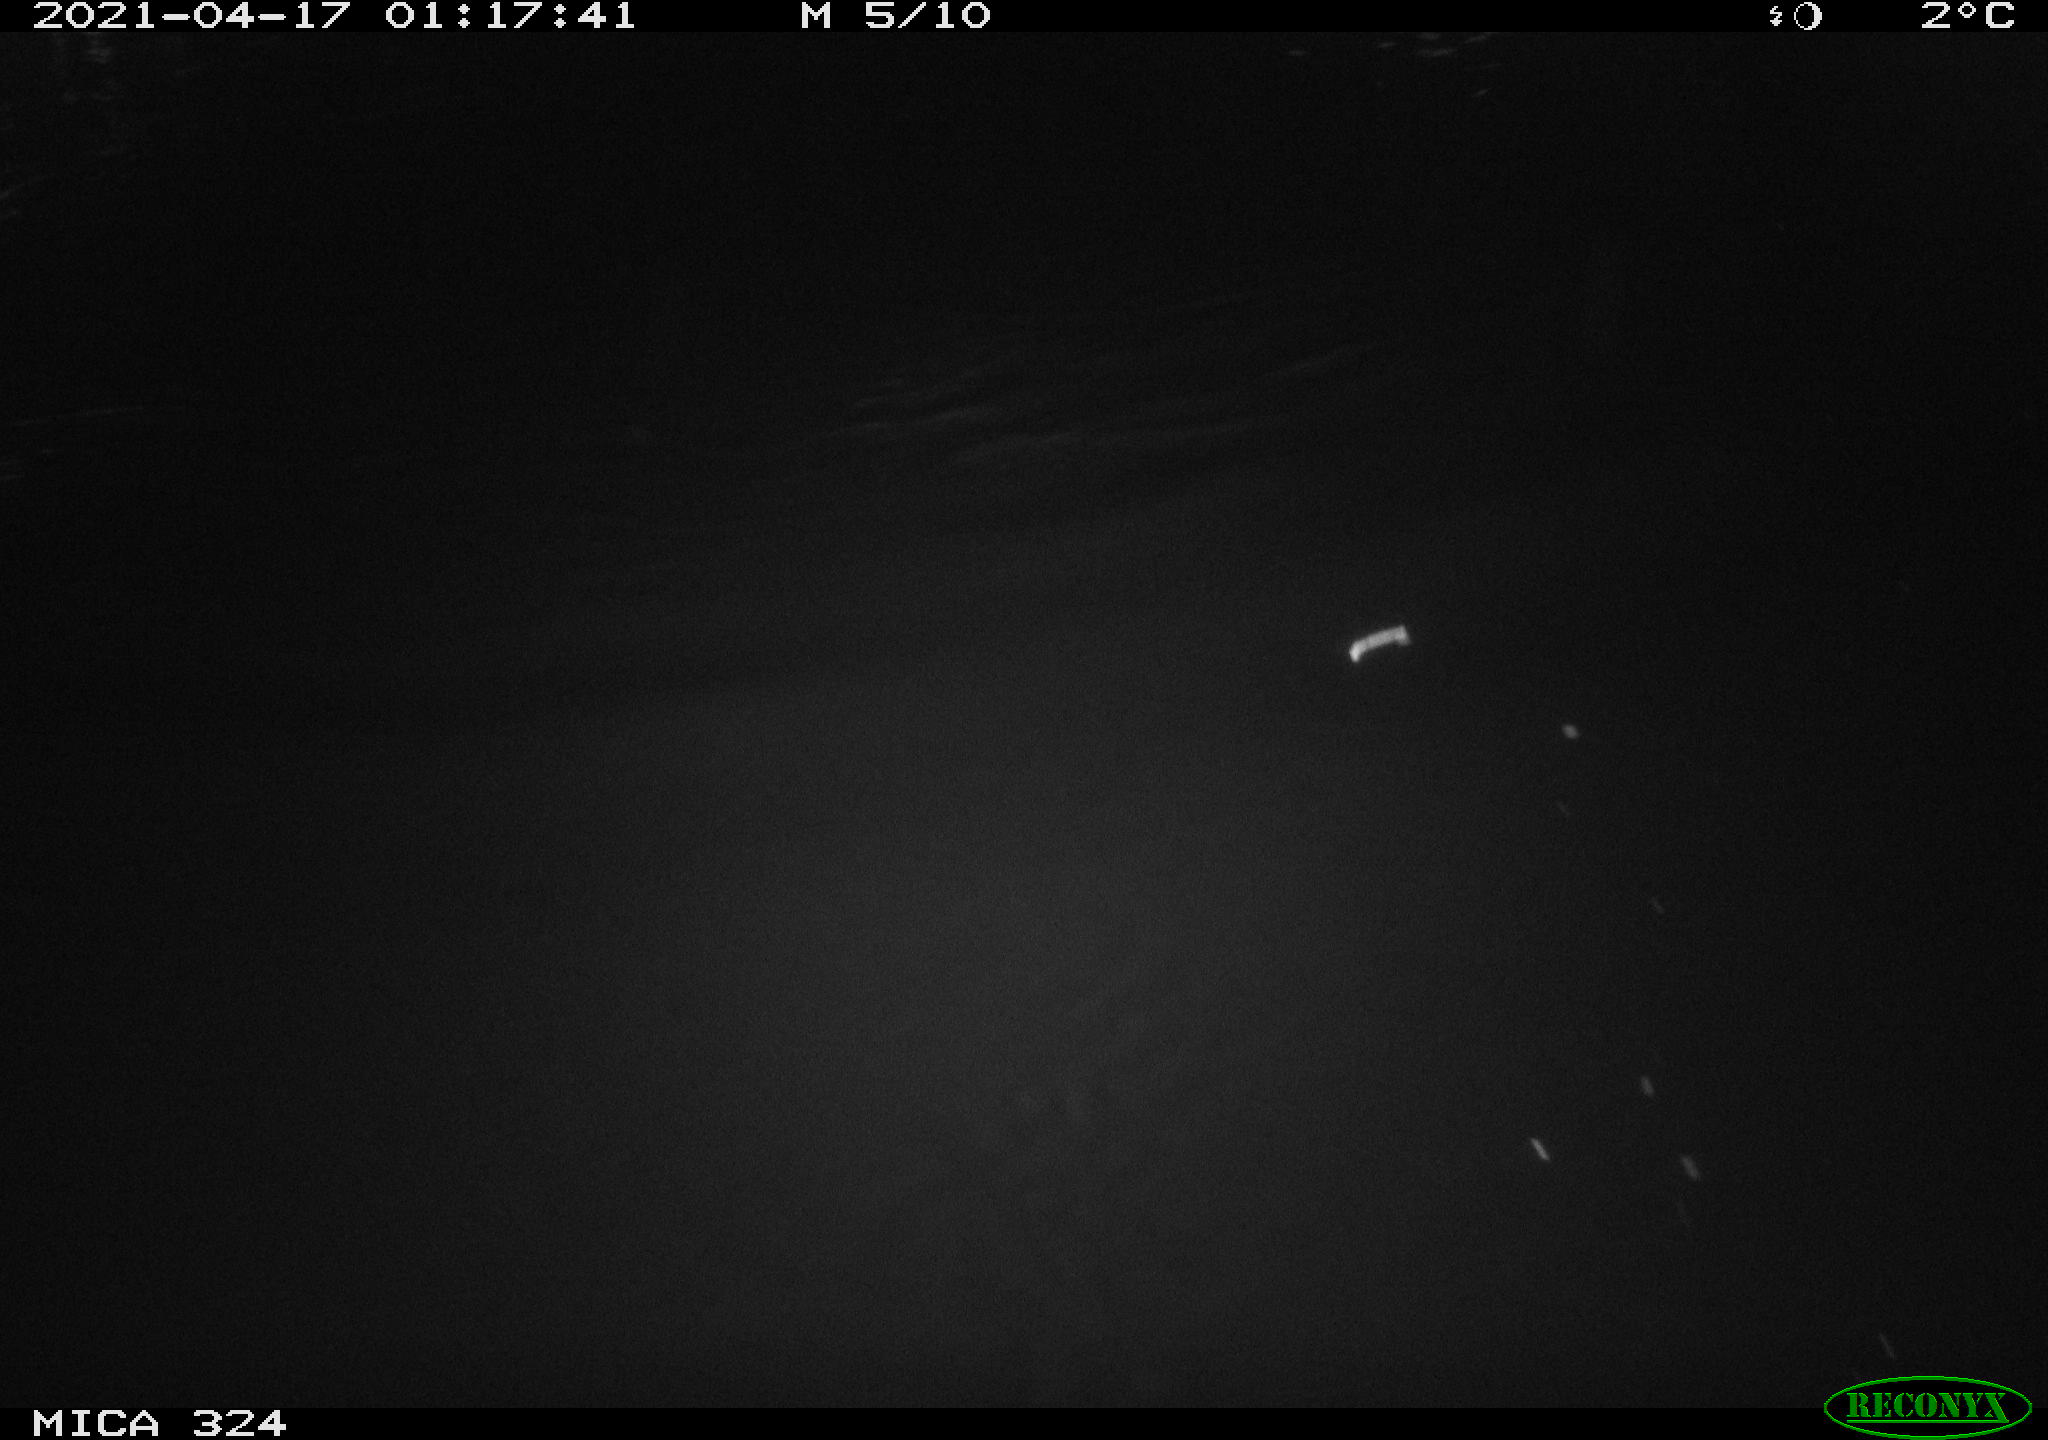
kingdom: Animalia
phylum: Chordata
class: Aves
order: Anseriformes
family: Anatidae
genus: Anas
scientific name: Anas platyrhynchos
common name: Mallard
